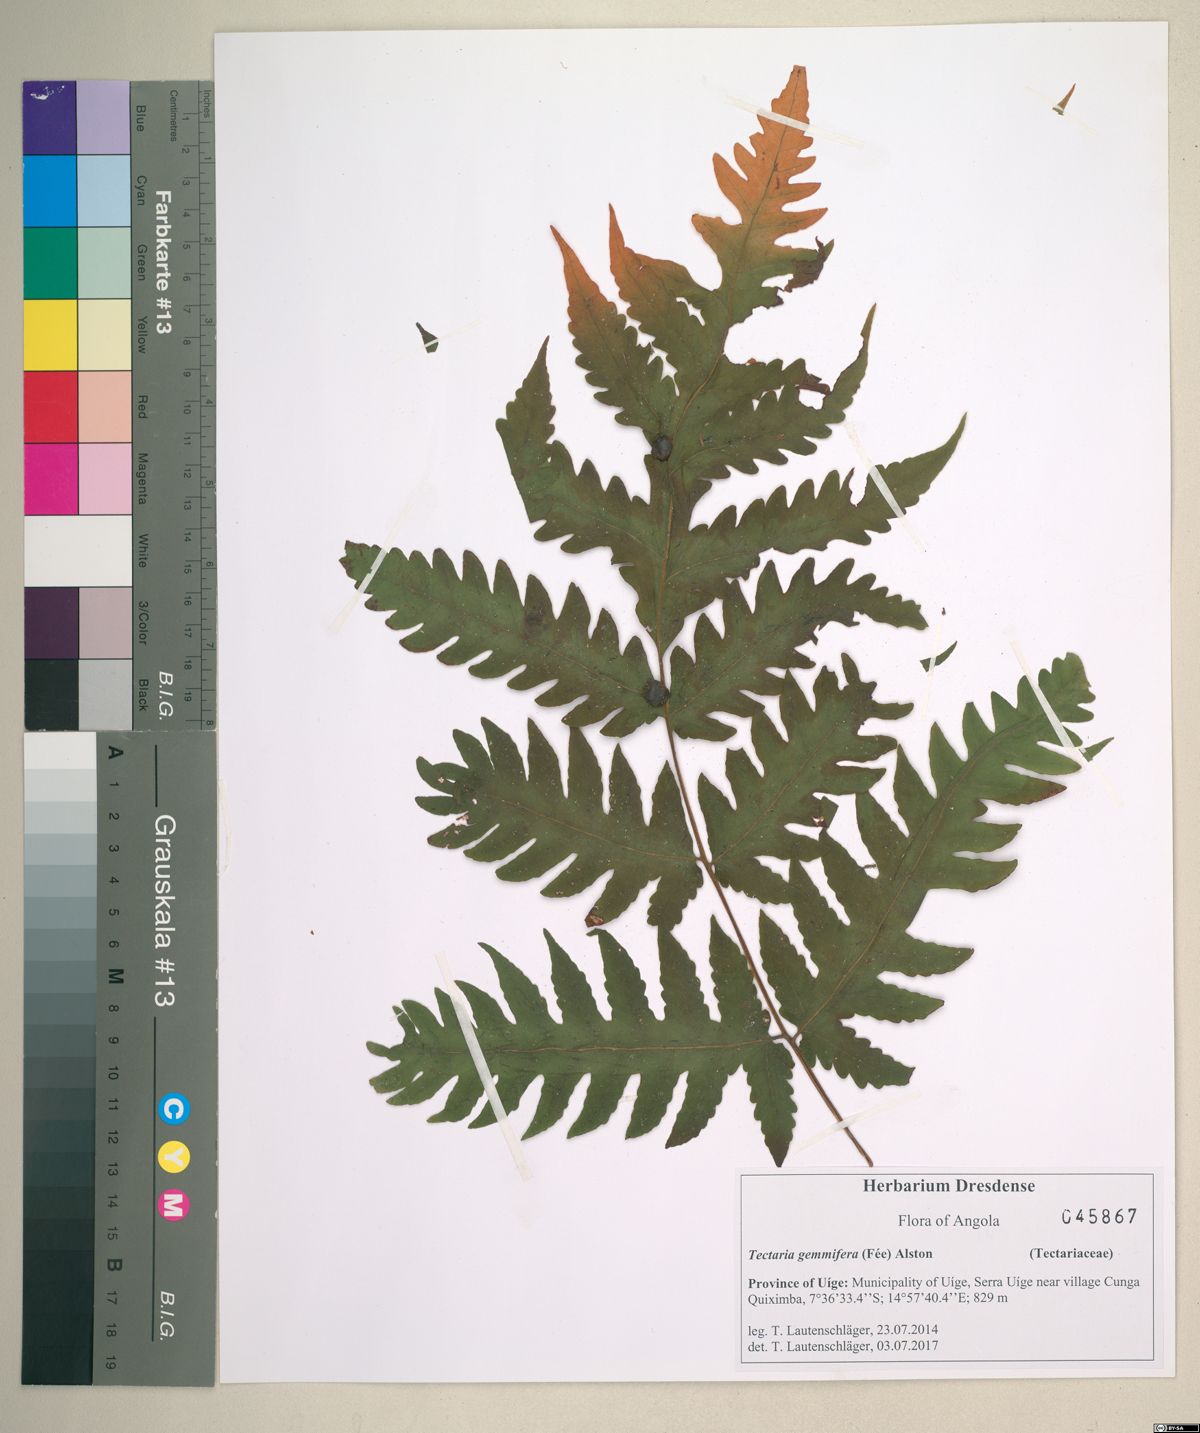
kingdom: Plantae
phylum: Tracheophyta
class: Polypodiopsida
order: Polypodiales
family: Tectariaceae
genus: Tectaria
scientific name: Tectaria gemmifera
